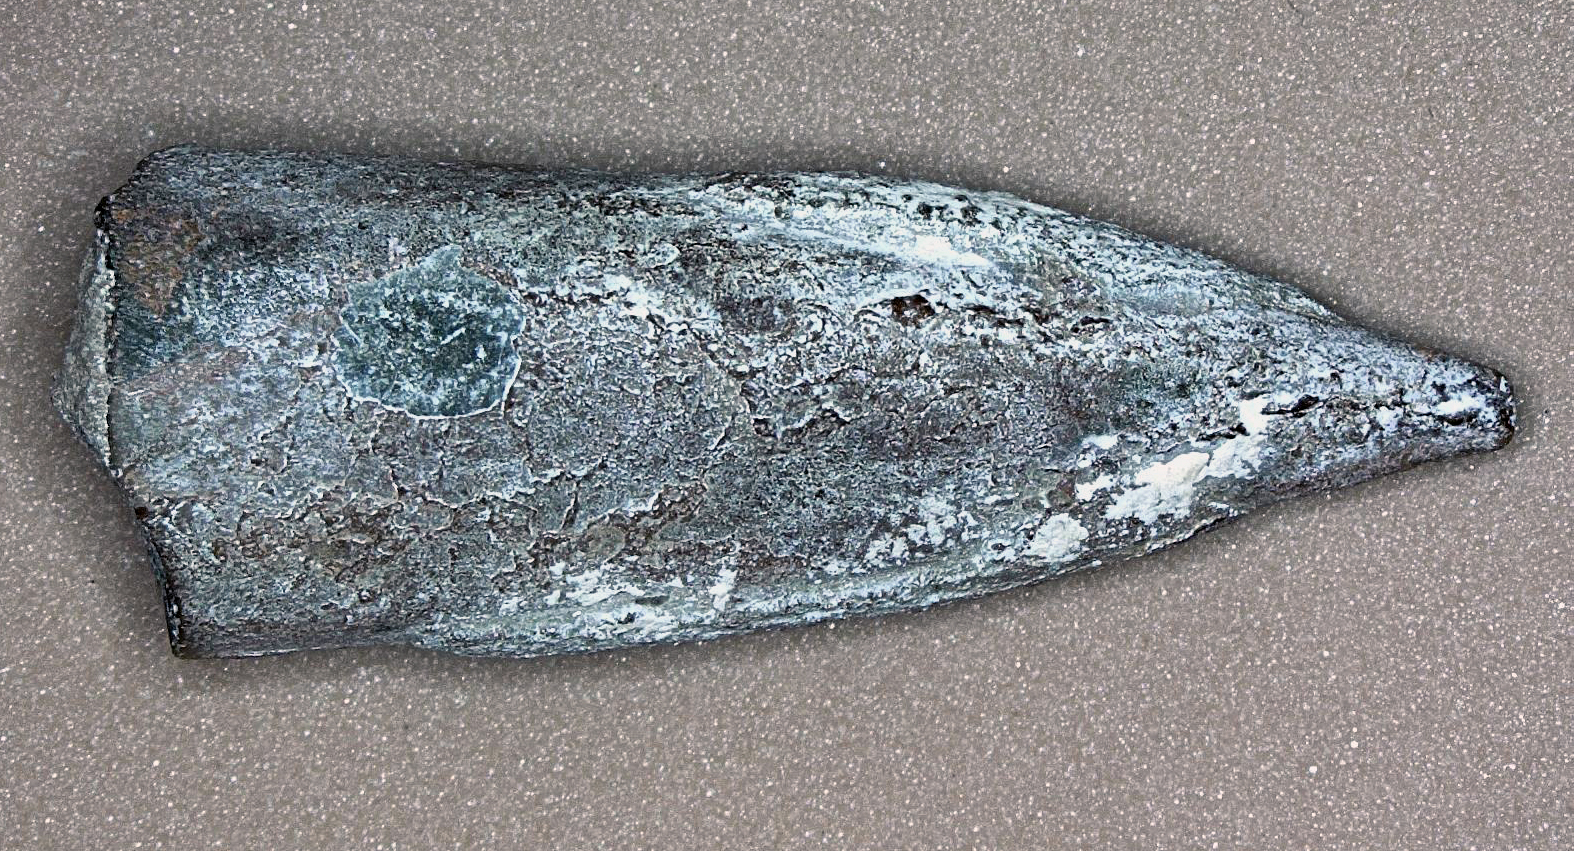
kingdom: Animalia
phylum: Mollusca
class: Cephalopoda
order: Belemnitida
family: Megateuthididae
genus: Acrocoelites
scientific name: Acrocoelites rostriformis
